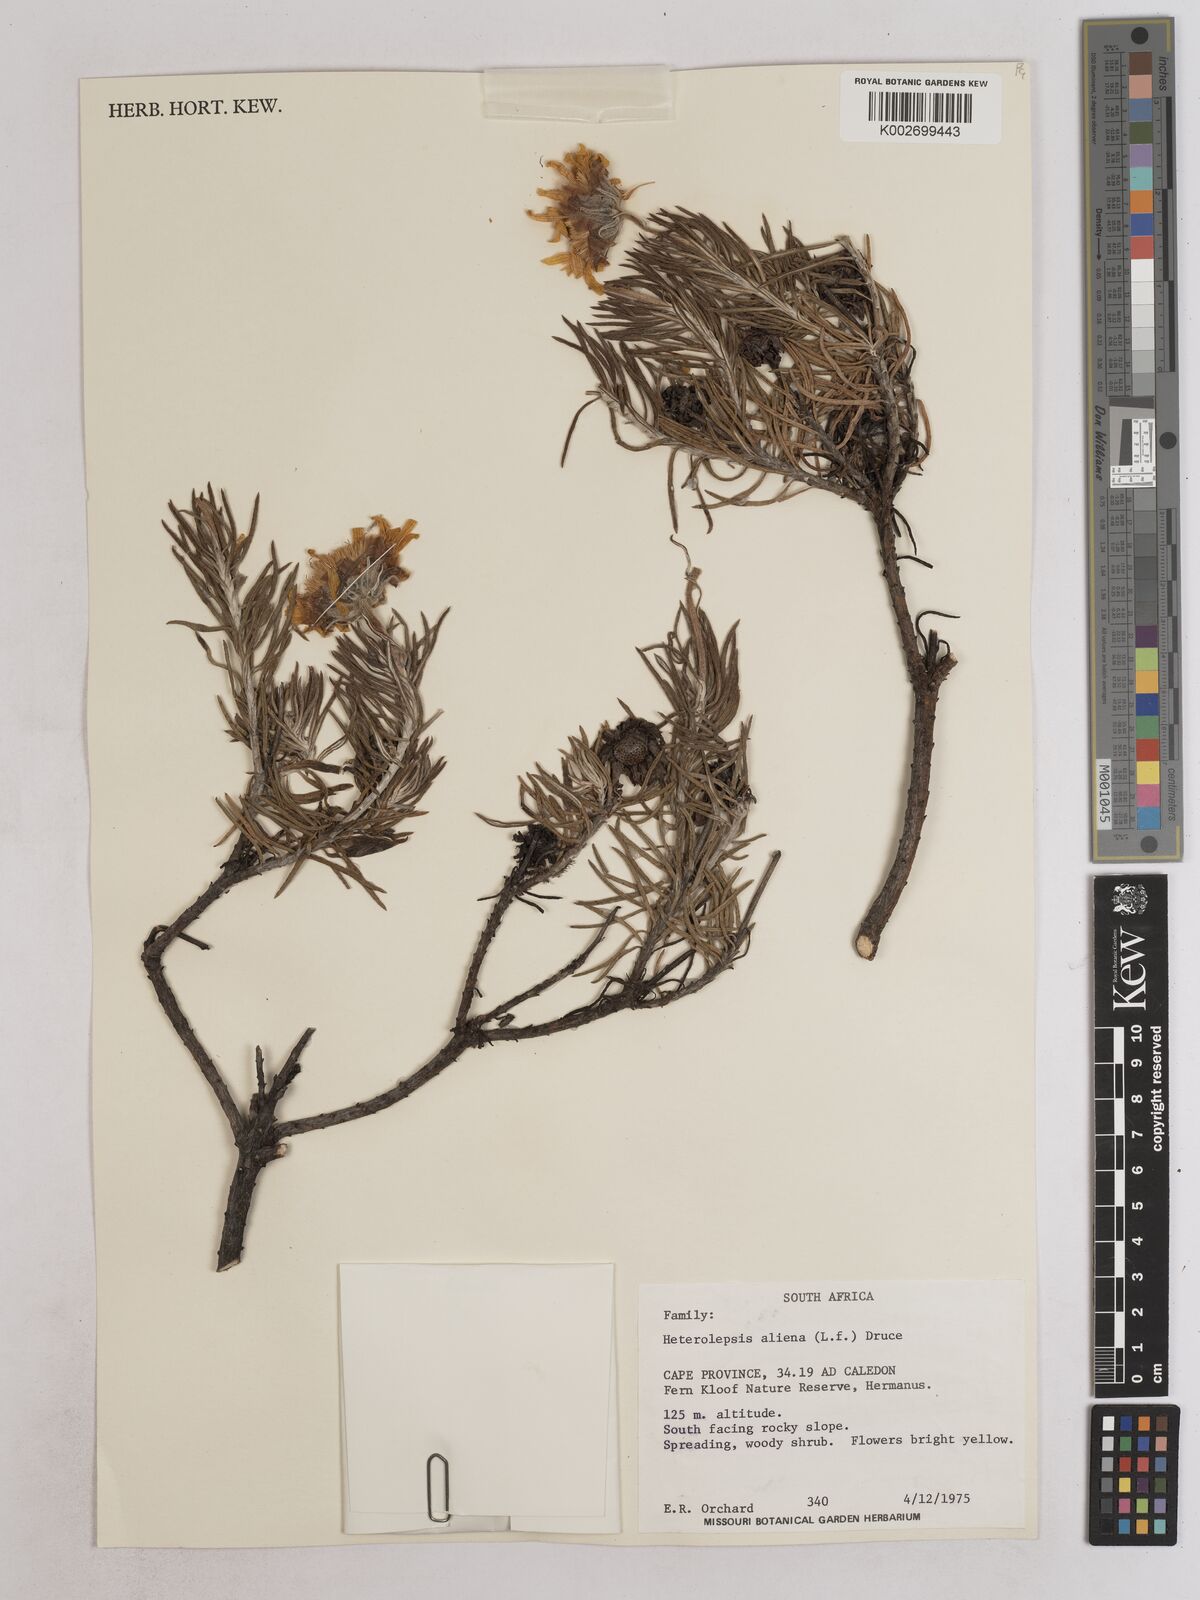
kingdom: Plantae
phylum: Tracheophyta
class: Magnoliopsida
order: Asterales
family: Asteraceae
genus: Heterolepis
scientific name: Heterolepis aliena
